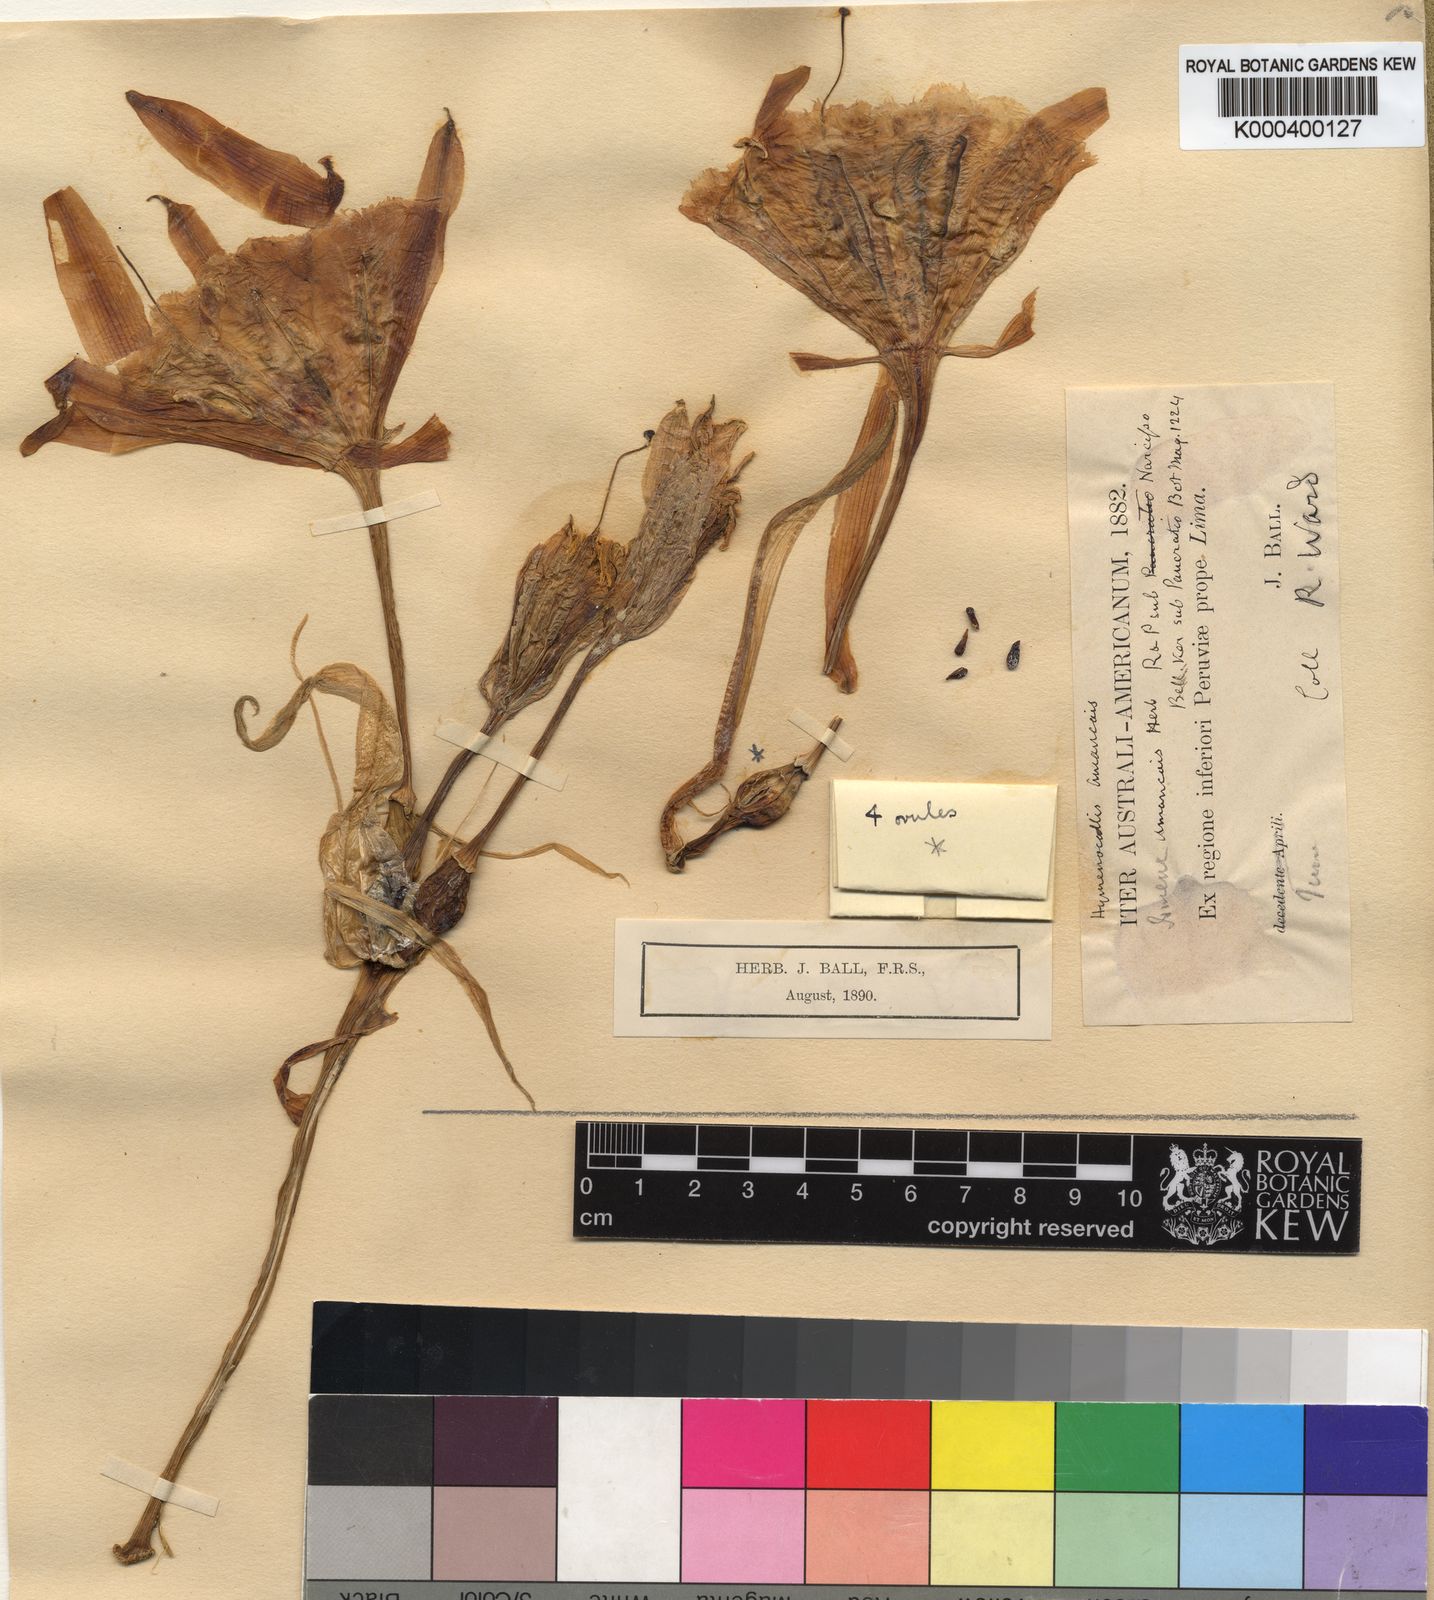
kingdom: Plantae
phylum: Tracheophyta
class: Liliopsida
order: Asparagales
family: Amaryllidaceae
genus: Ismene
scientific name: Ismene amancaes
